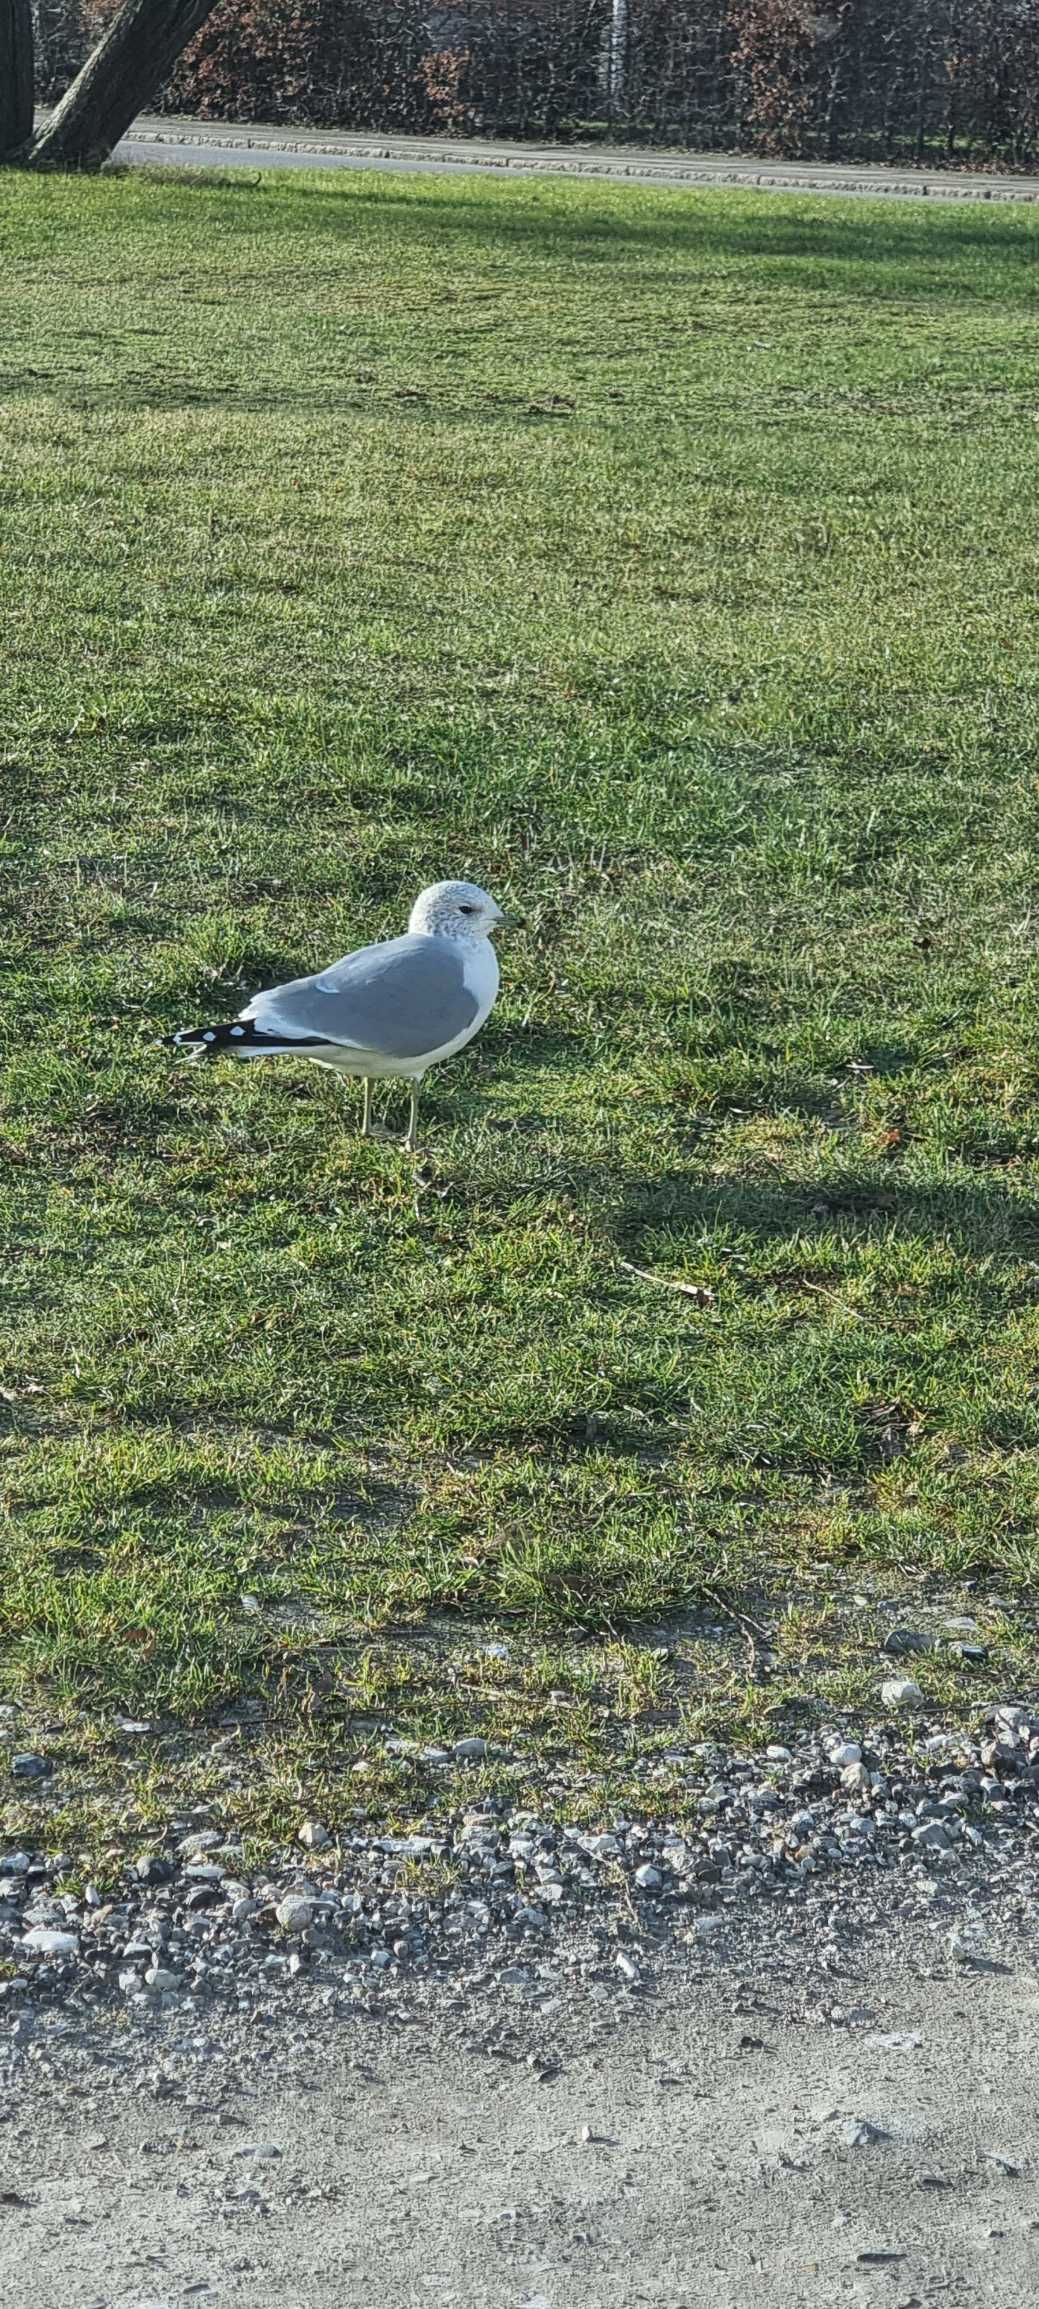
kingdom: Animalia
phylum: Chordata
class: Aves
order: Charadriiformes
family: Laridae
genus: Larus
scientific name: Larus canus
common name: Stormmåge
